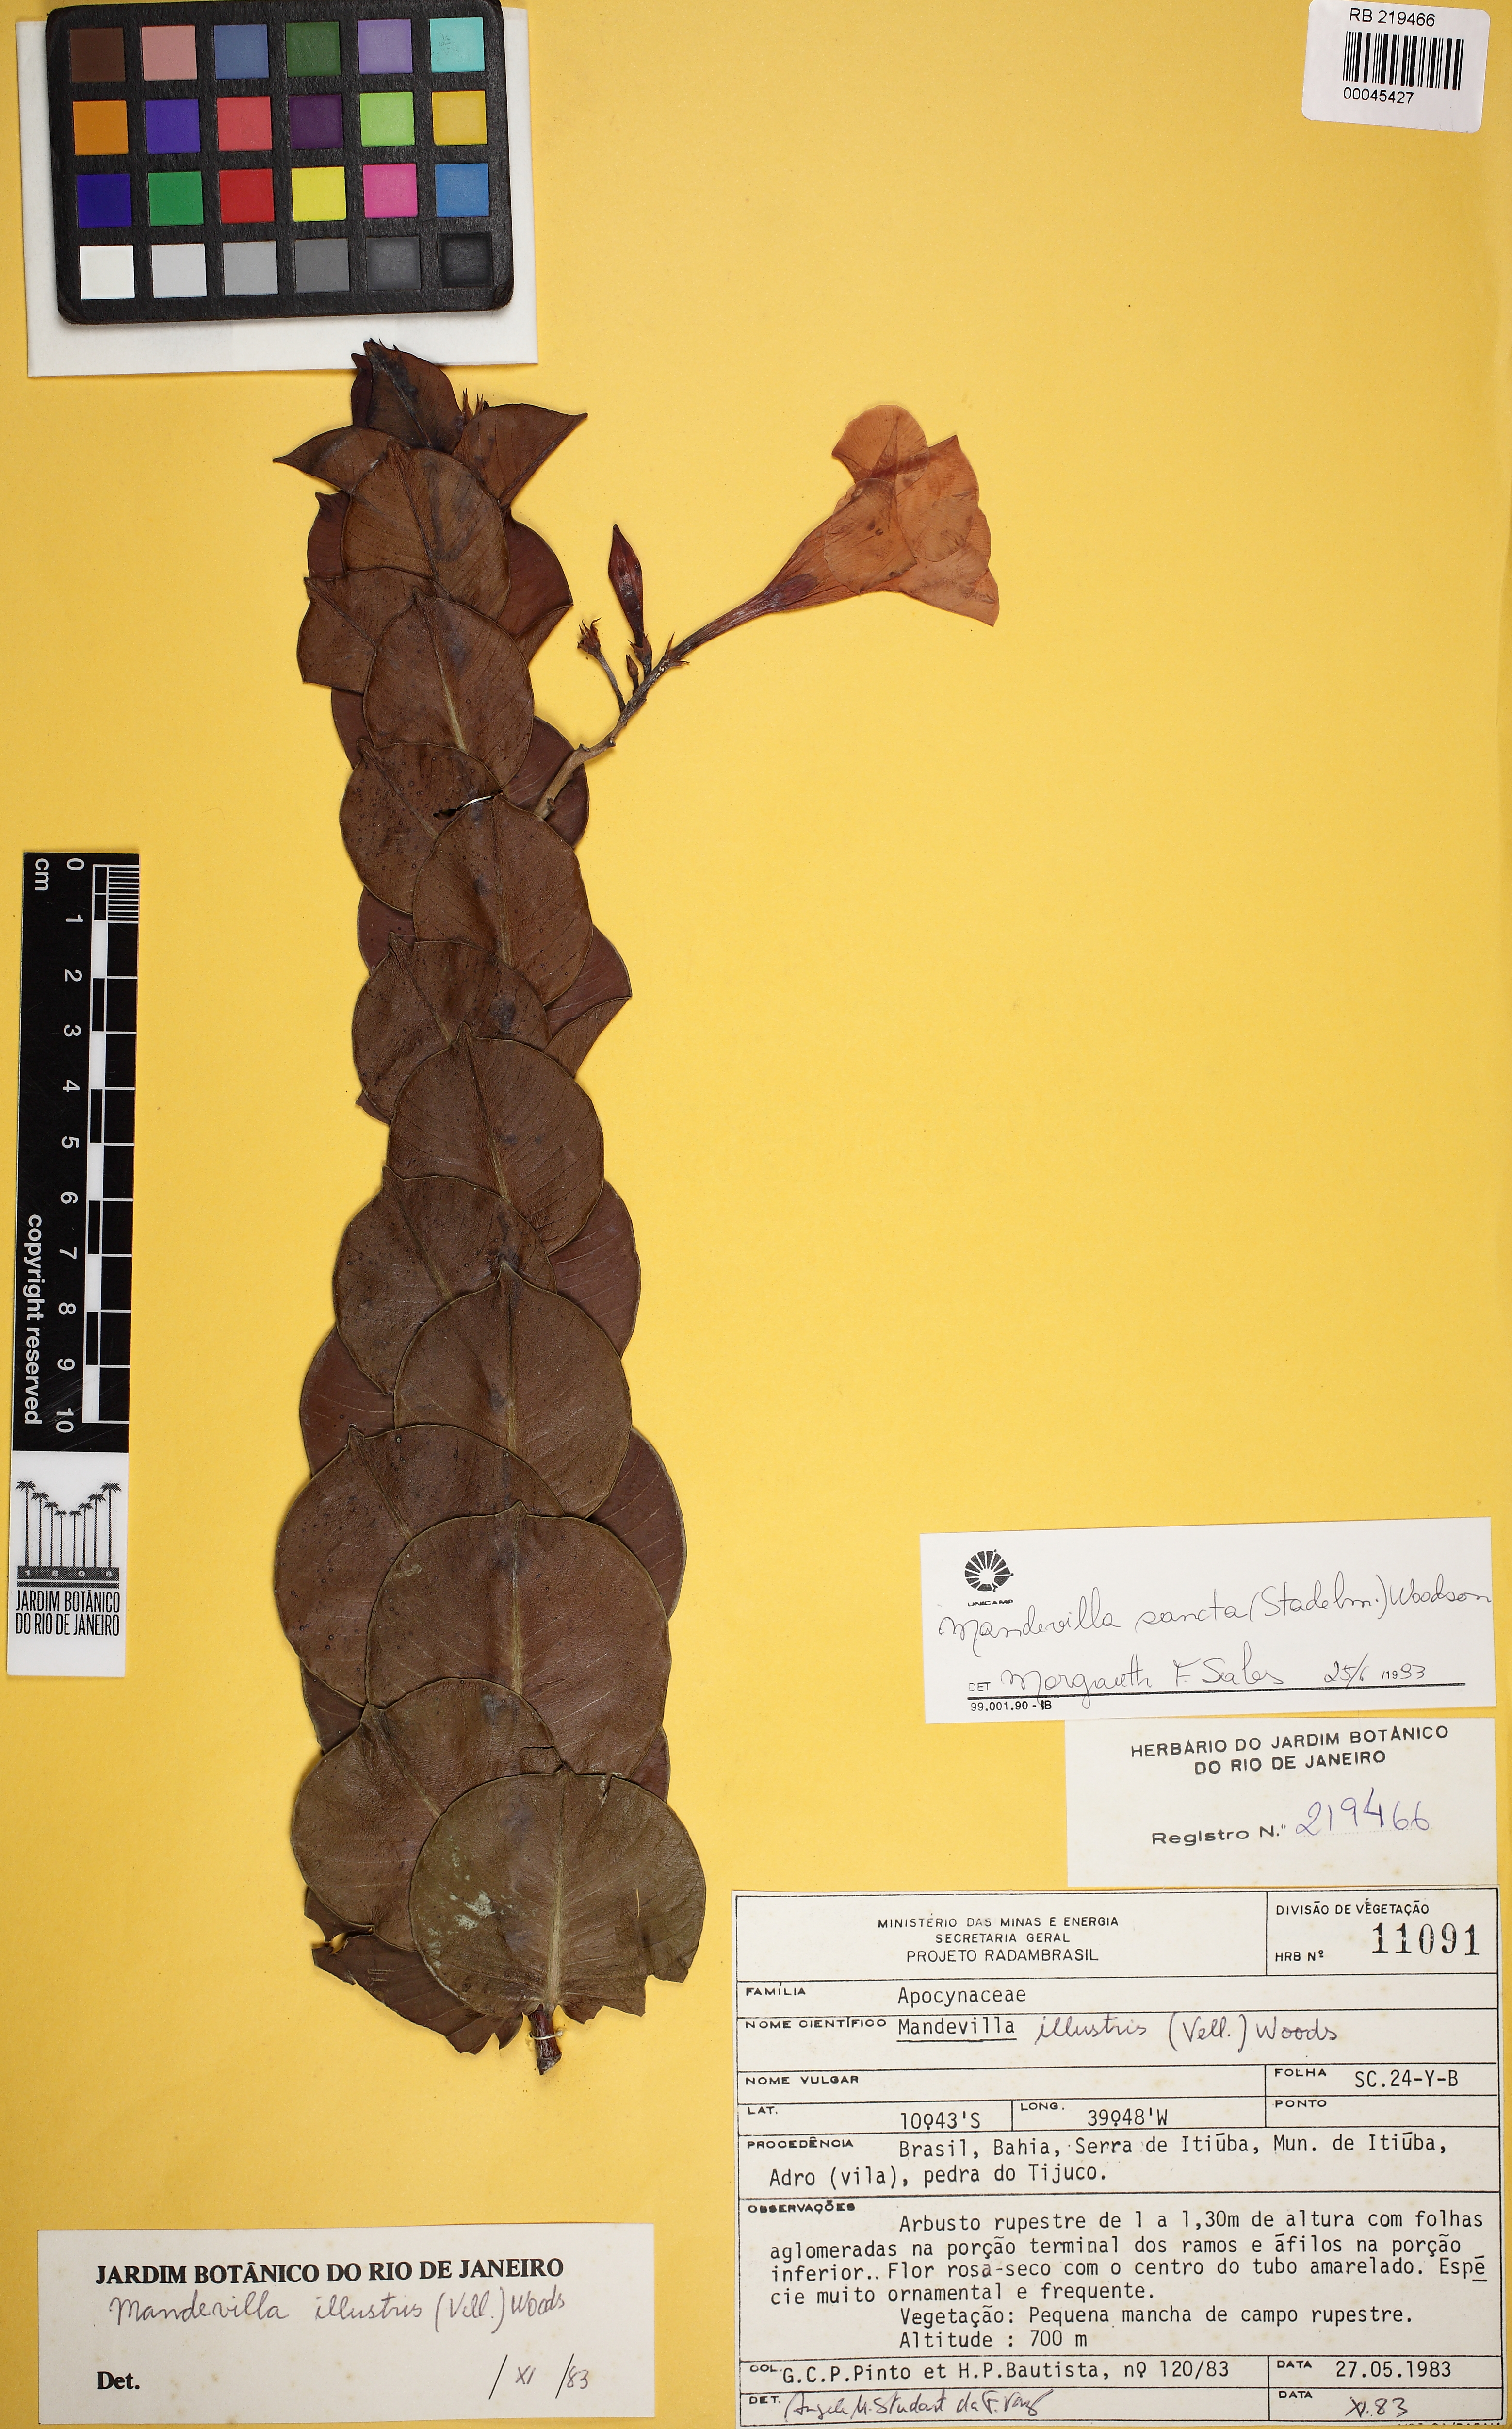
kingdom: Plantae
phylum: Tracheophyta
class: Magnoliopsida
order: Gentianales
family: Apocynaceae
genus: Mandevilla
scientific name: Mandevilla sancta
